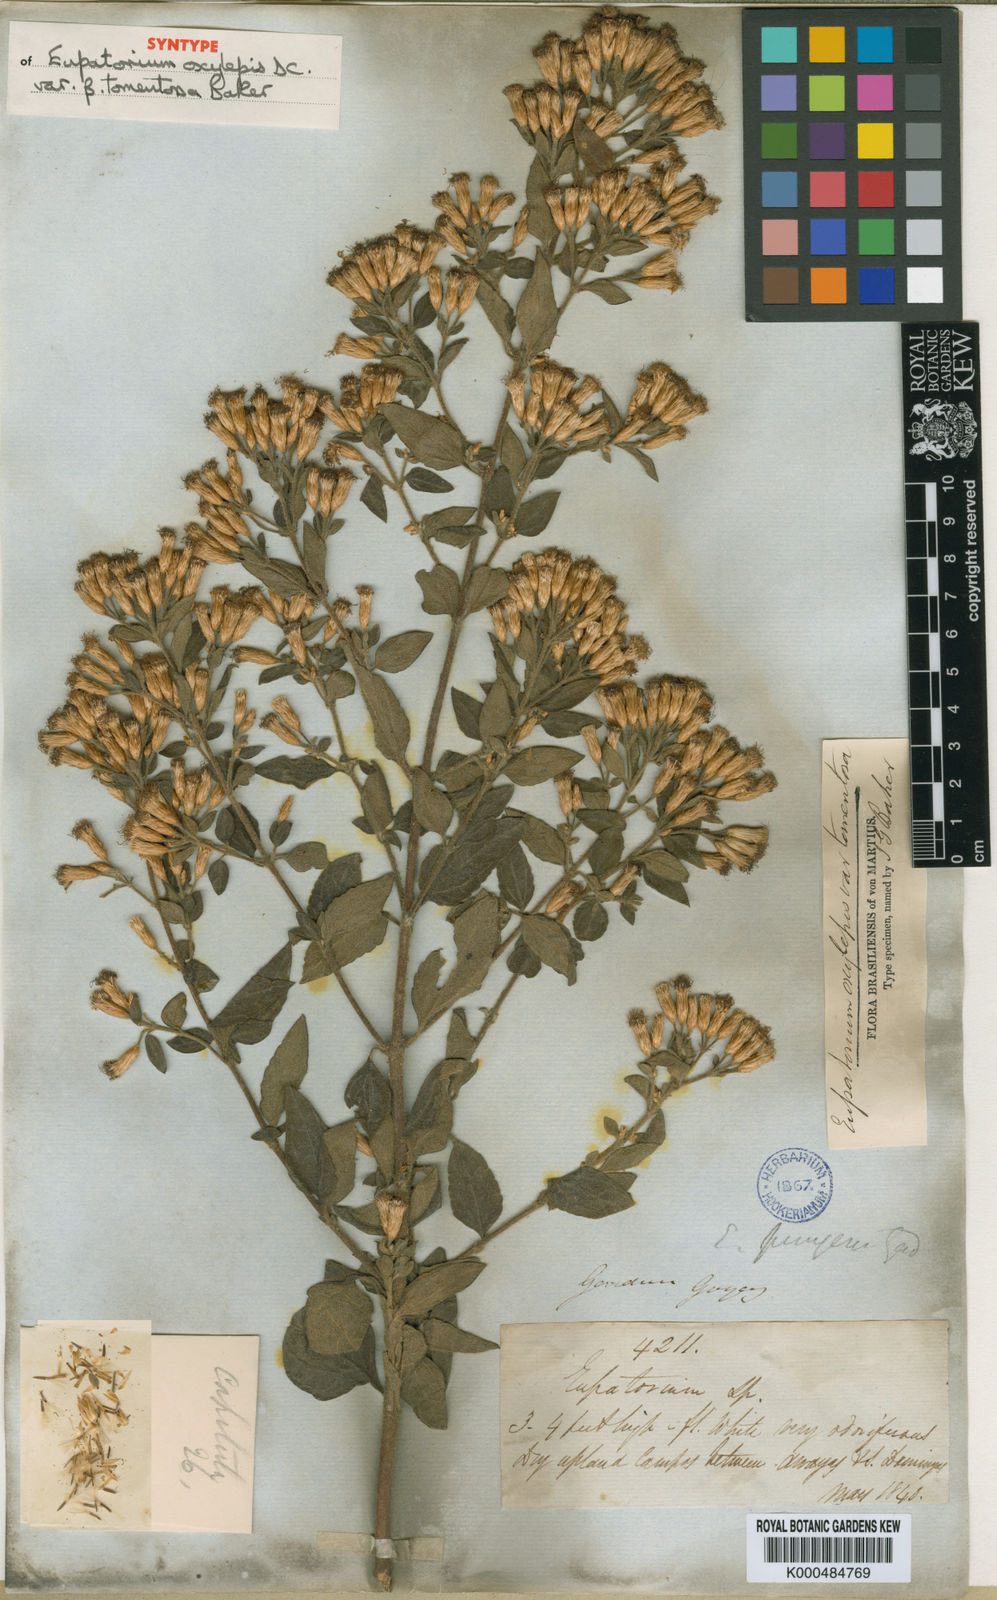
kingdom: Plantae
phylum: Tracheophyta
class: Magnoliopsida
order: Asterales
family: Asteraceae
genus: Chromolaena
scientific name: Chromolaena pungens
